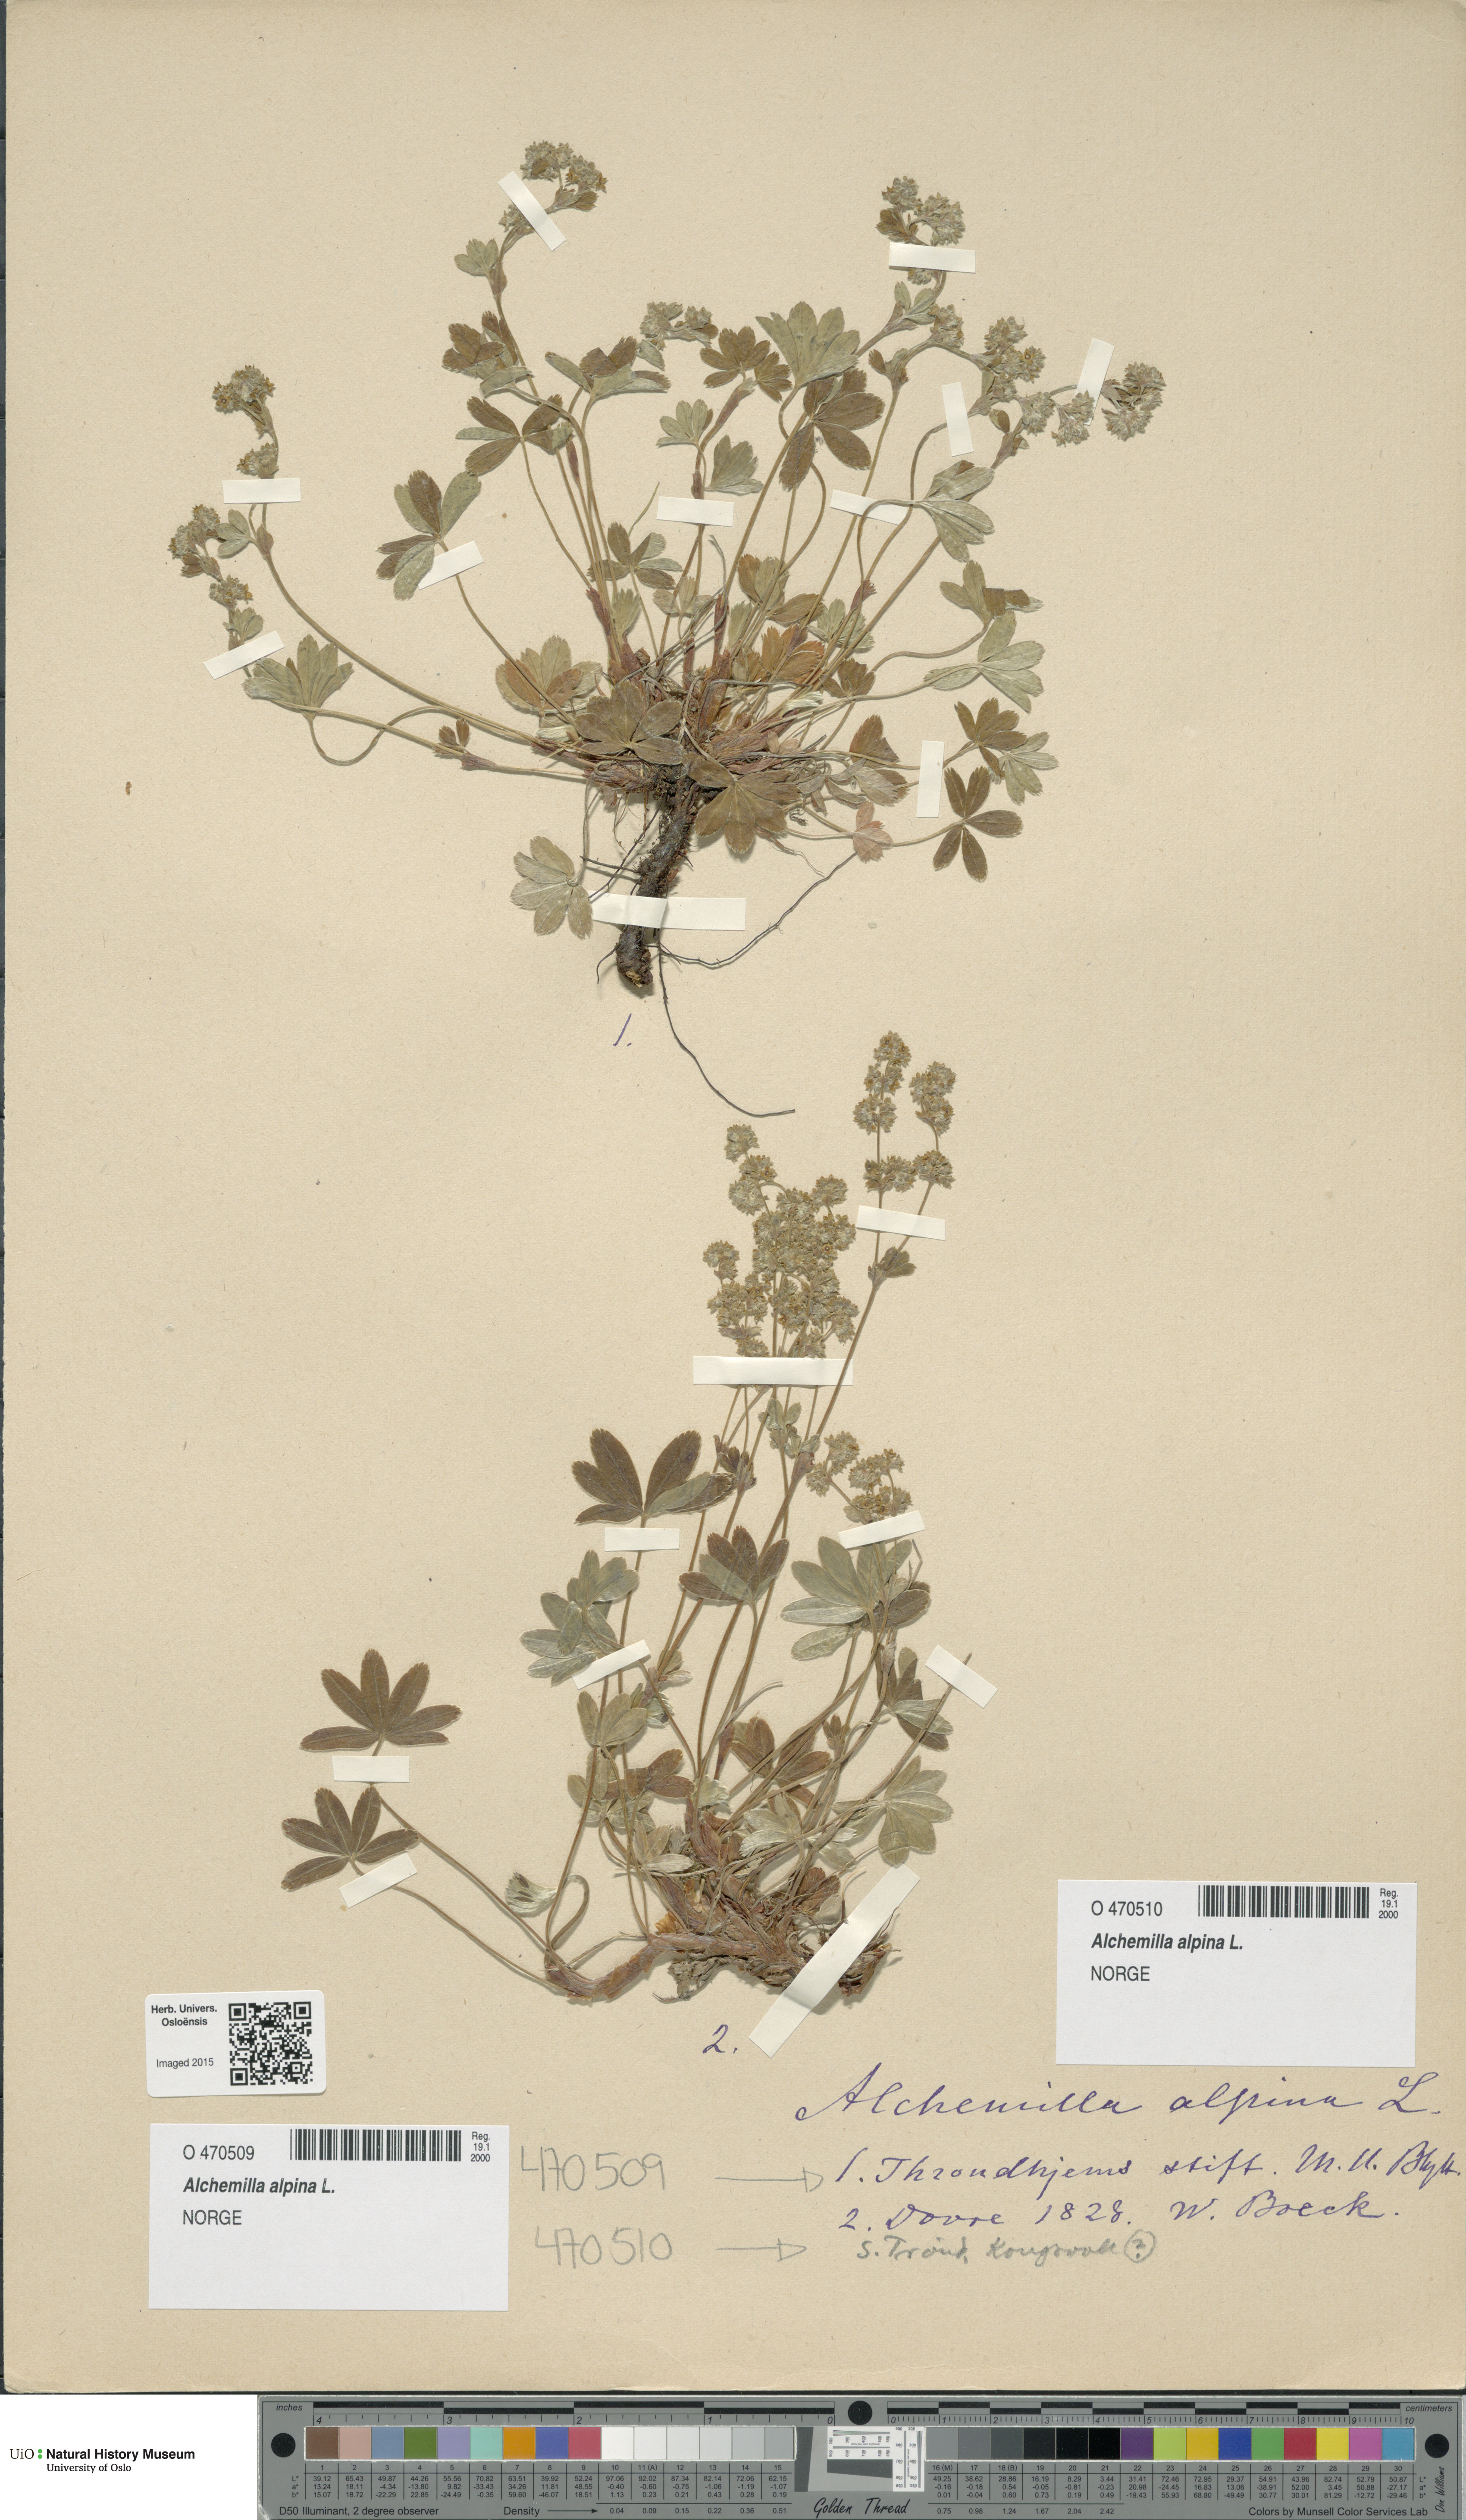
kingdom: Plantae
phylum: Tracheophyta
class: Magnoliopsida
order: Rosales
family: Rosaceae
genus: Alchemilla
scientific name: Alchemilla alpina
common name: Alpine lady's-mantle
